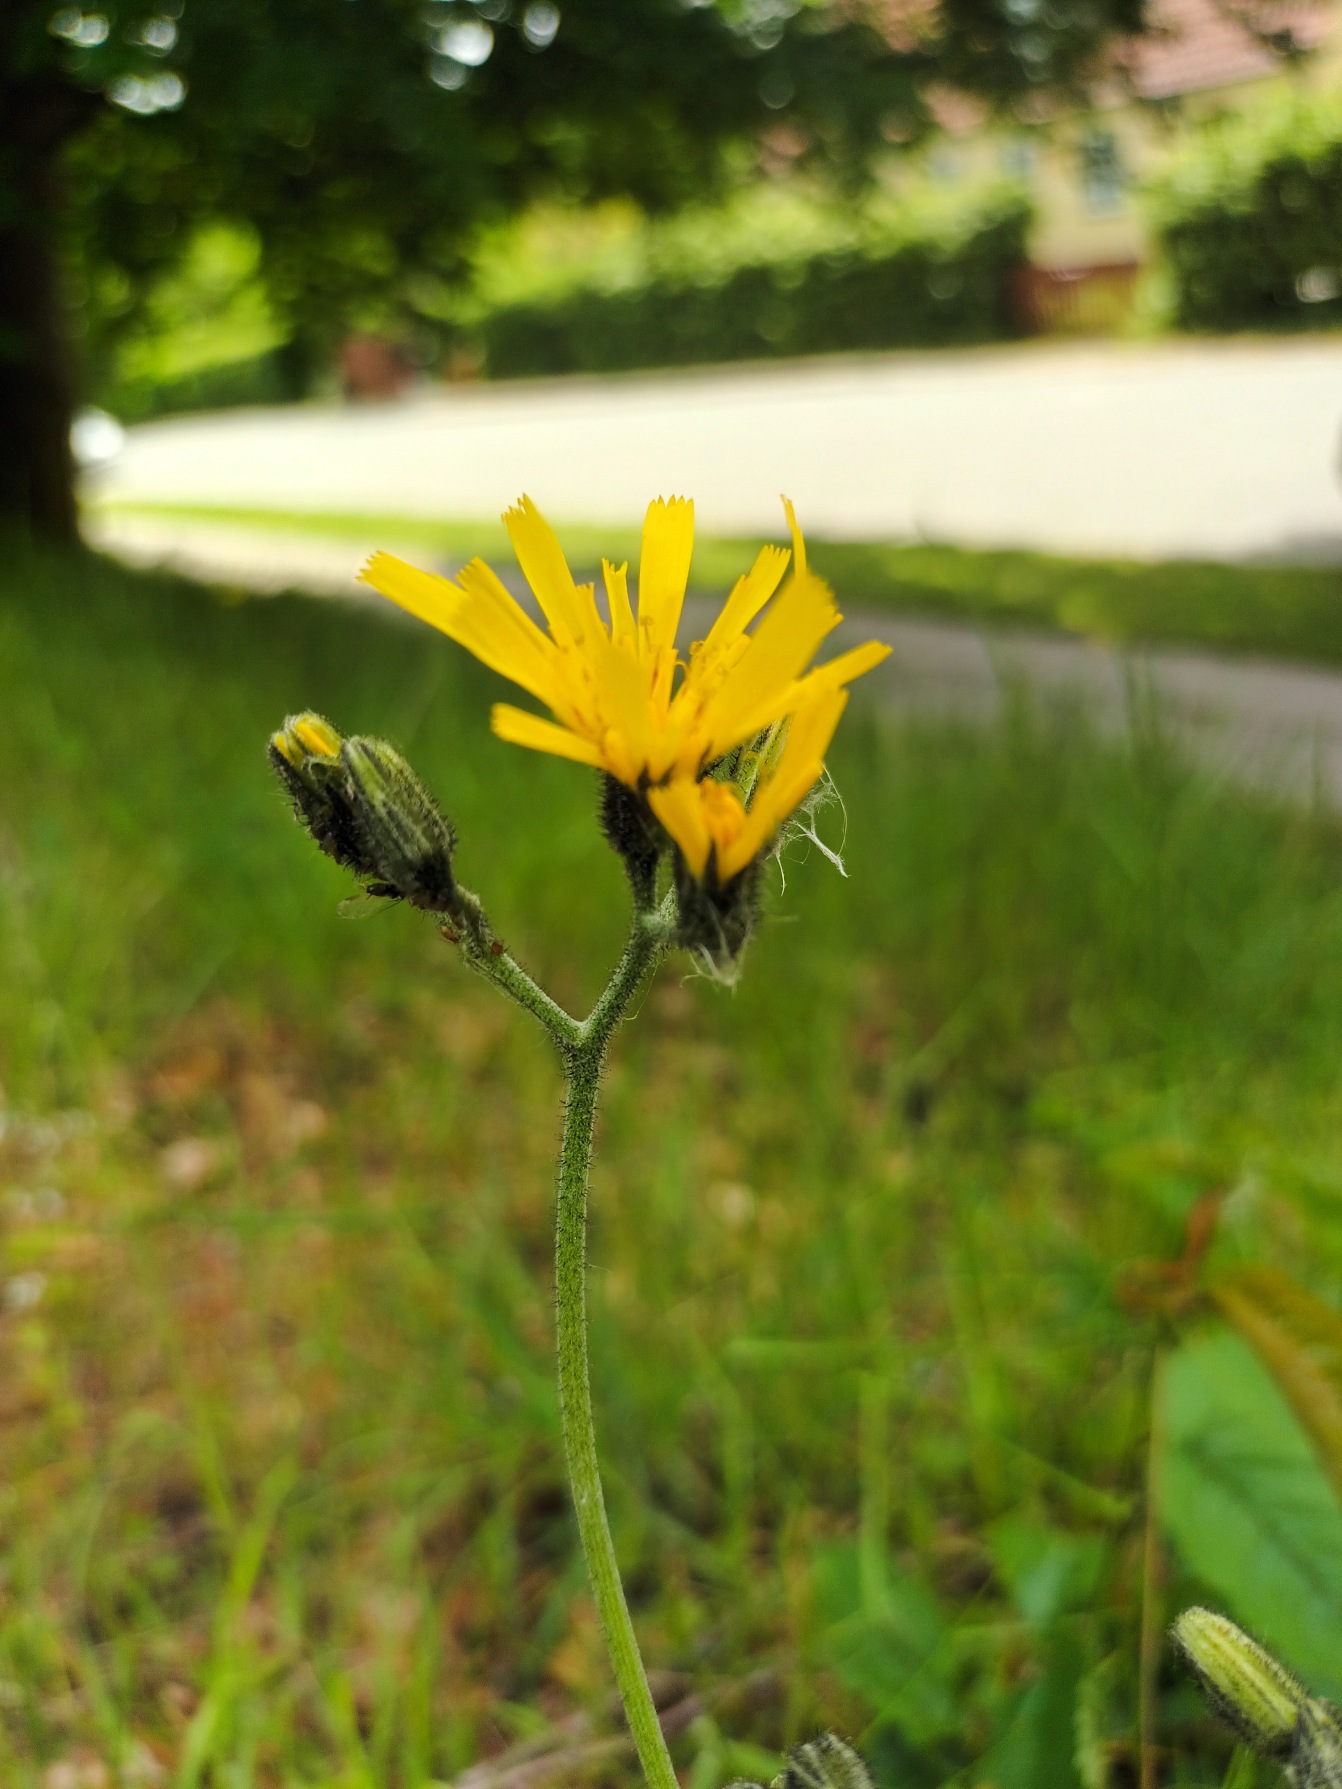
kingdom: Plantae
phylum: Tracheophyta
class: Magnoliopsida
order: Asterales
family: Asteraceae
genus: Hieracium
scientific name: Hieracium
